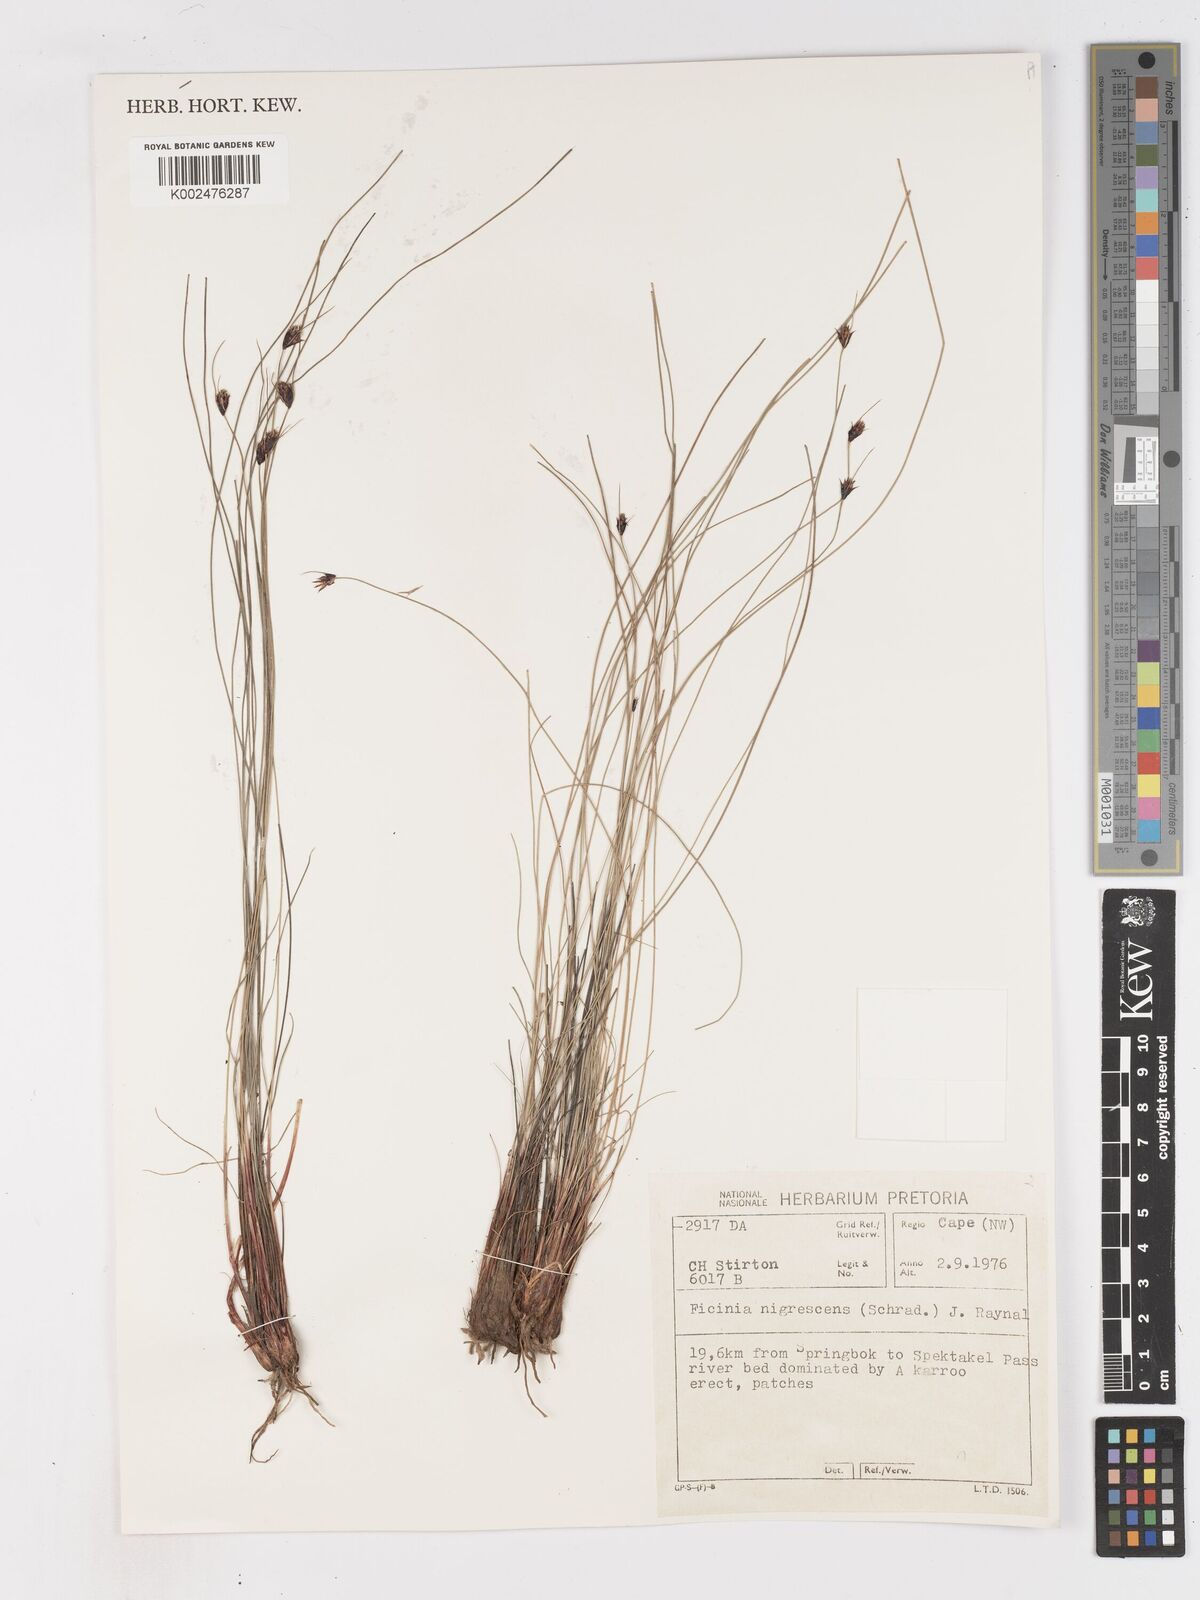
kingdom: Plantae
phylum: Tracheophyta
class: Liliopsida
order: Poales
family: Cyperaceae
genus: Ficinia
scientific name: Ficinia nigrescens
